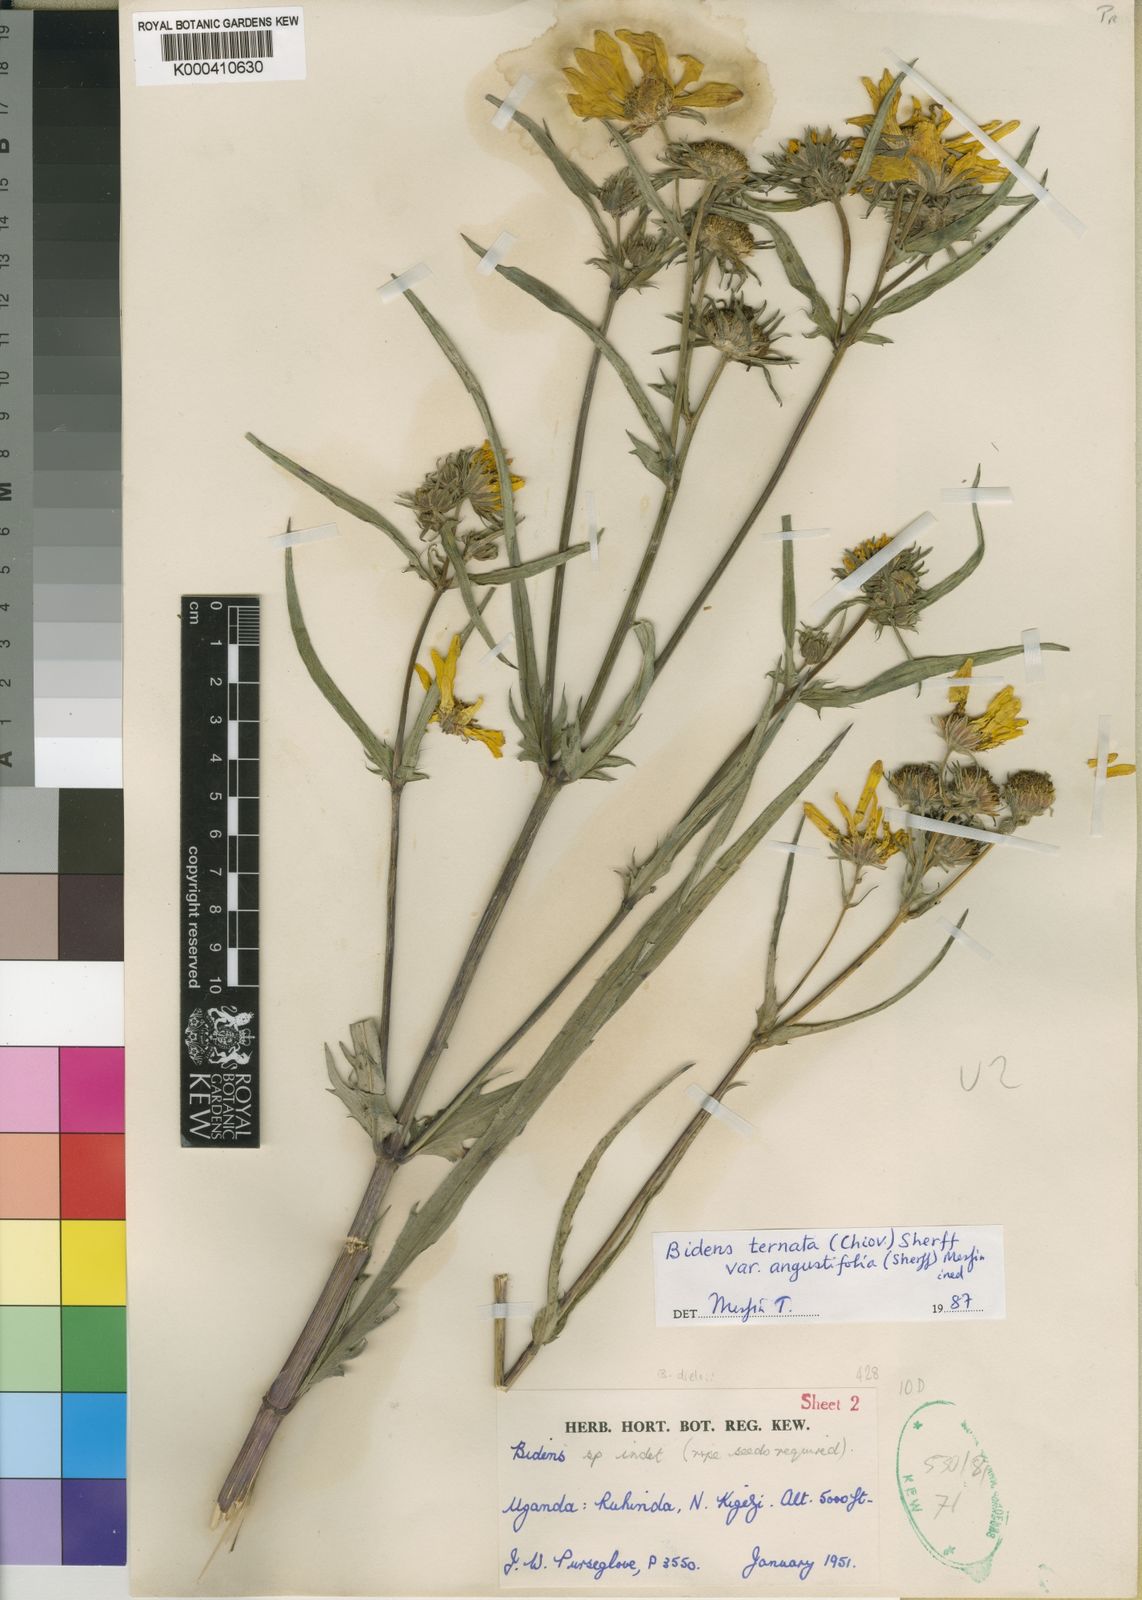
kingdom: Plantae
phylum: Tracheophyta
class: Magnoliopsida
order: Asterales
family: Asteraceae
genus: Bidens
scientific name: Bidens ternata
